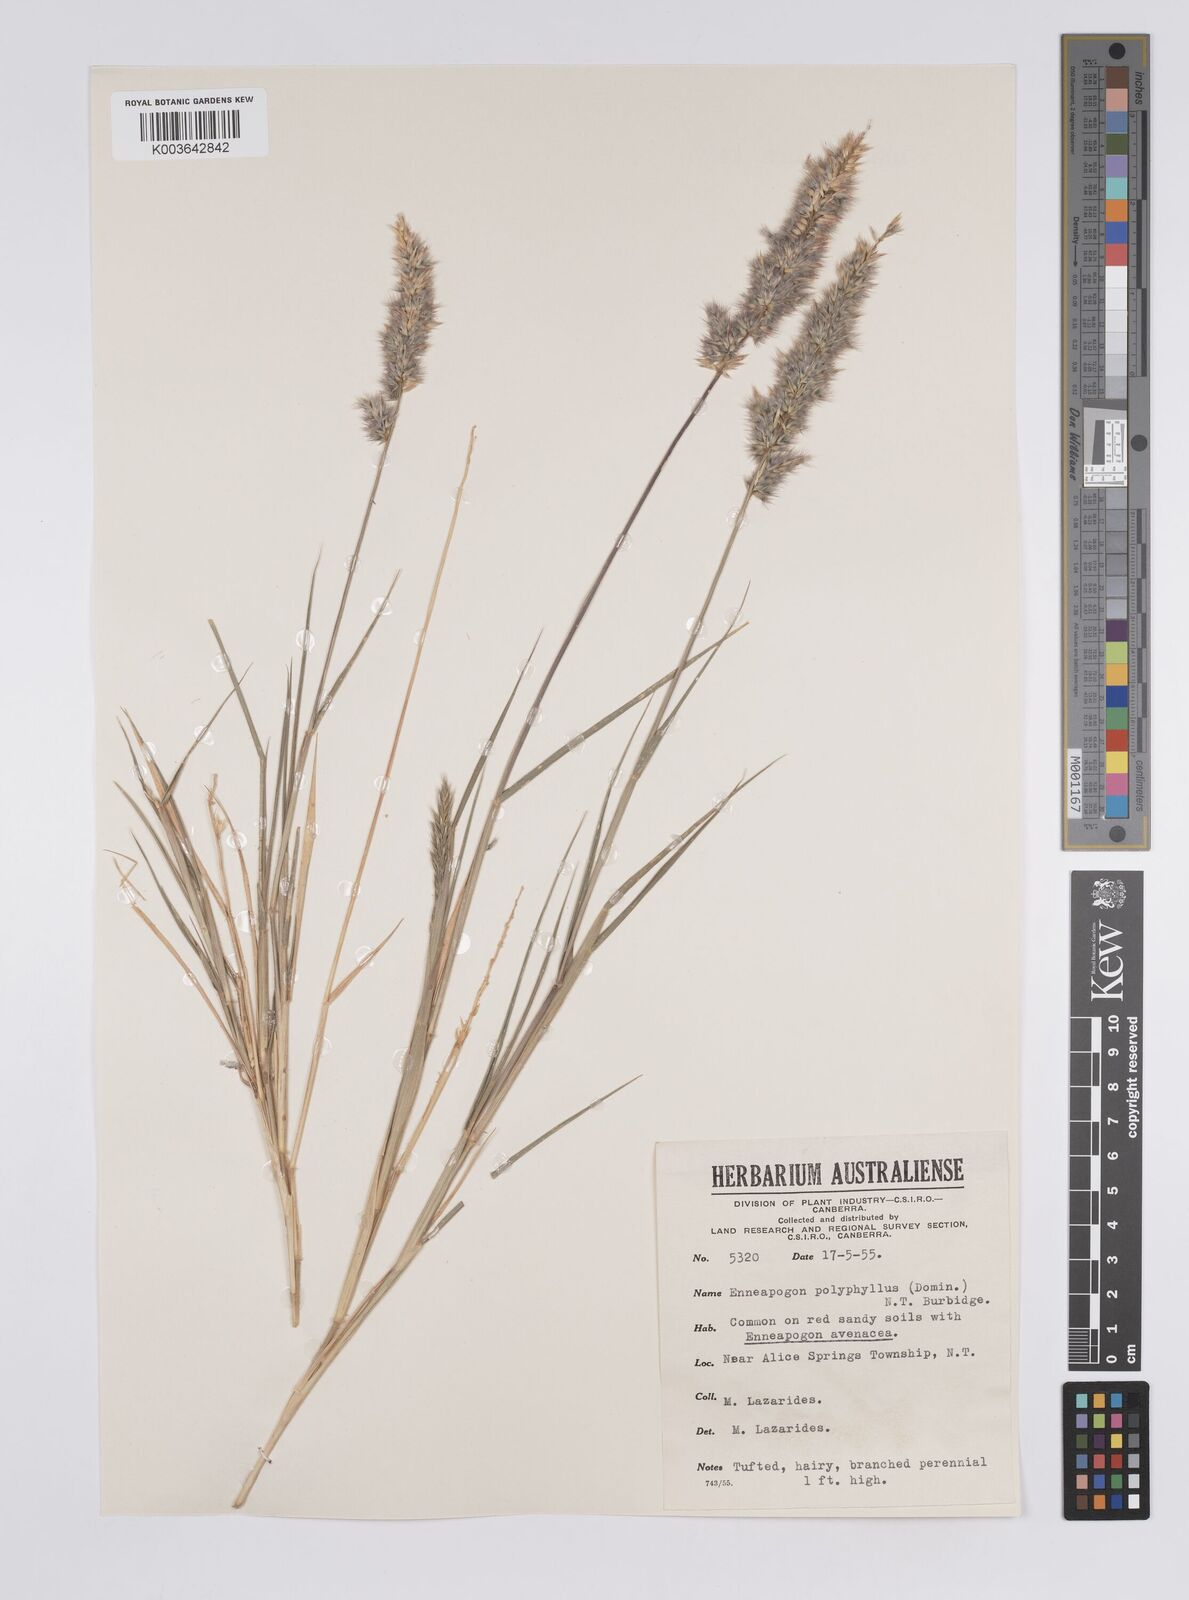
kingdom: Plantae
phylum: Tracheophyta
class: Liliopsida
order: Poales
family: Poaceae
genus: Enneapogon
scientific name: Enneapogon avenaceus
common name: Hairy oat grass
